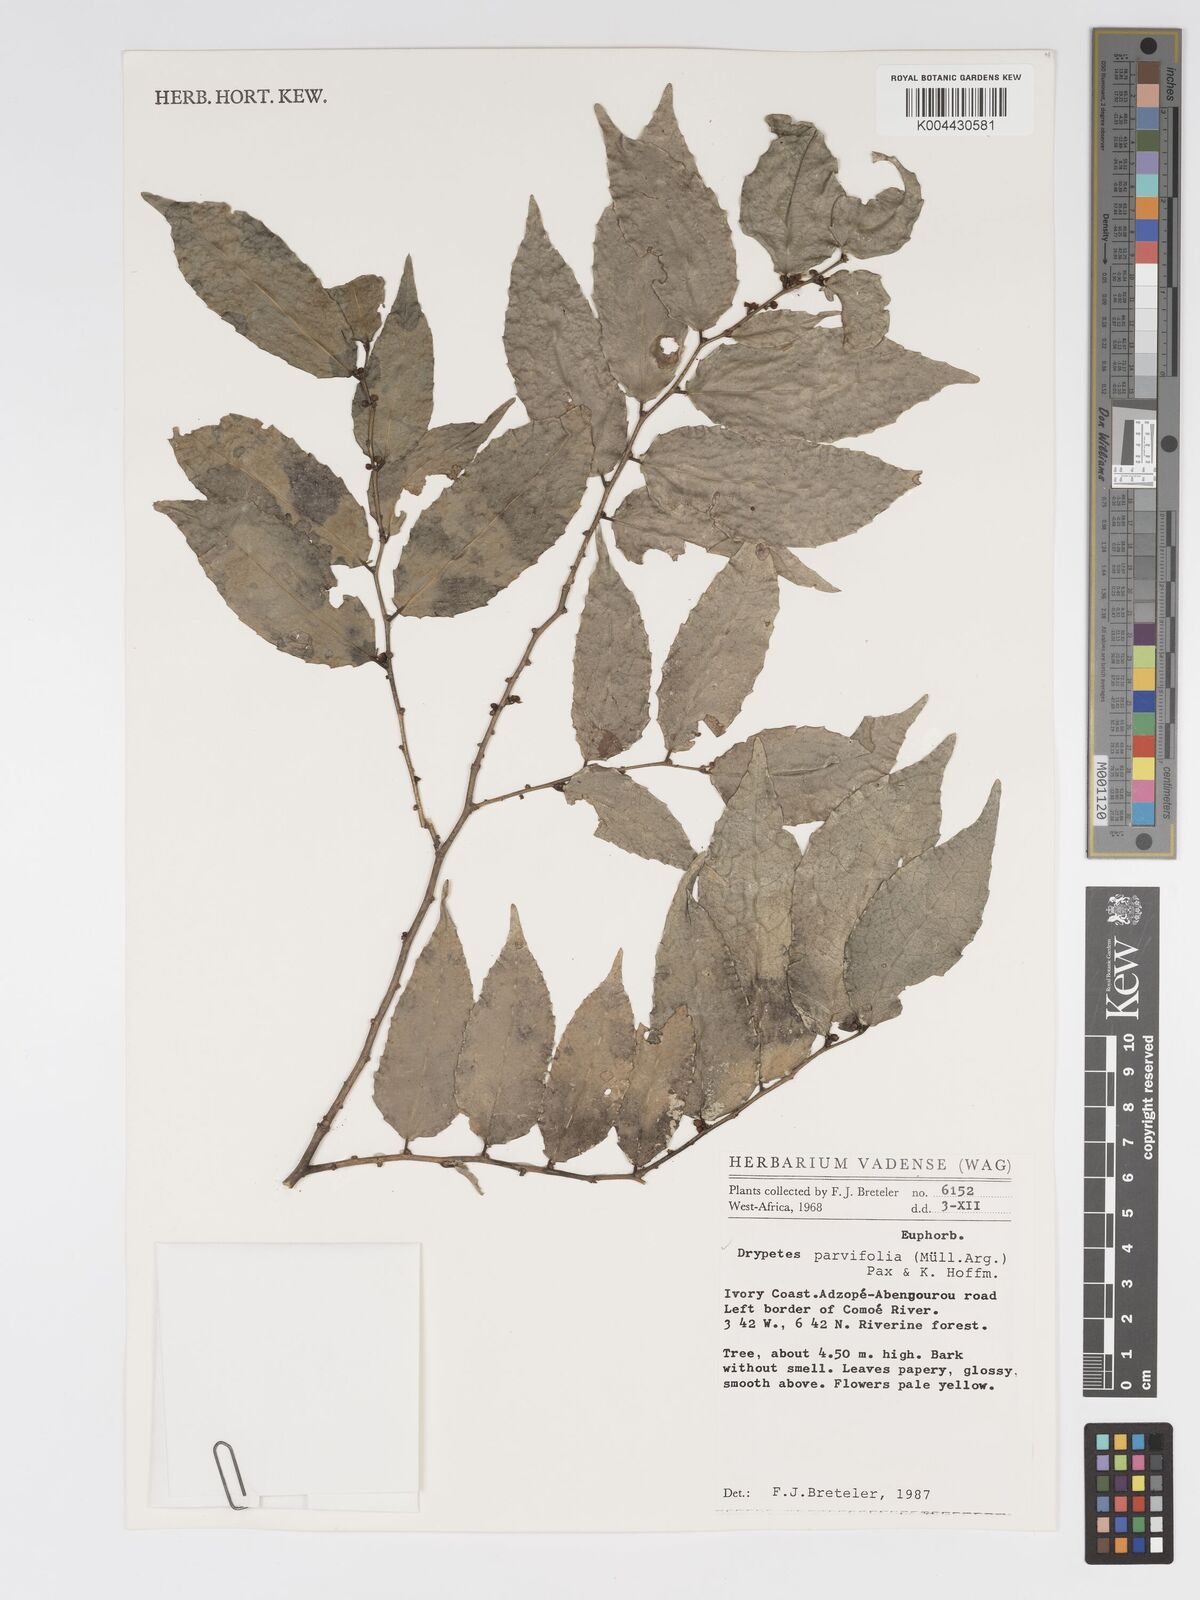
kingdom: Plantae
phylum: Tracheophyta
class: Magnoliopsida
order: Malpighiales
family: Putranjivaceae
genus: Drypetes
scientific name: Drypetes parvifolia
